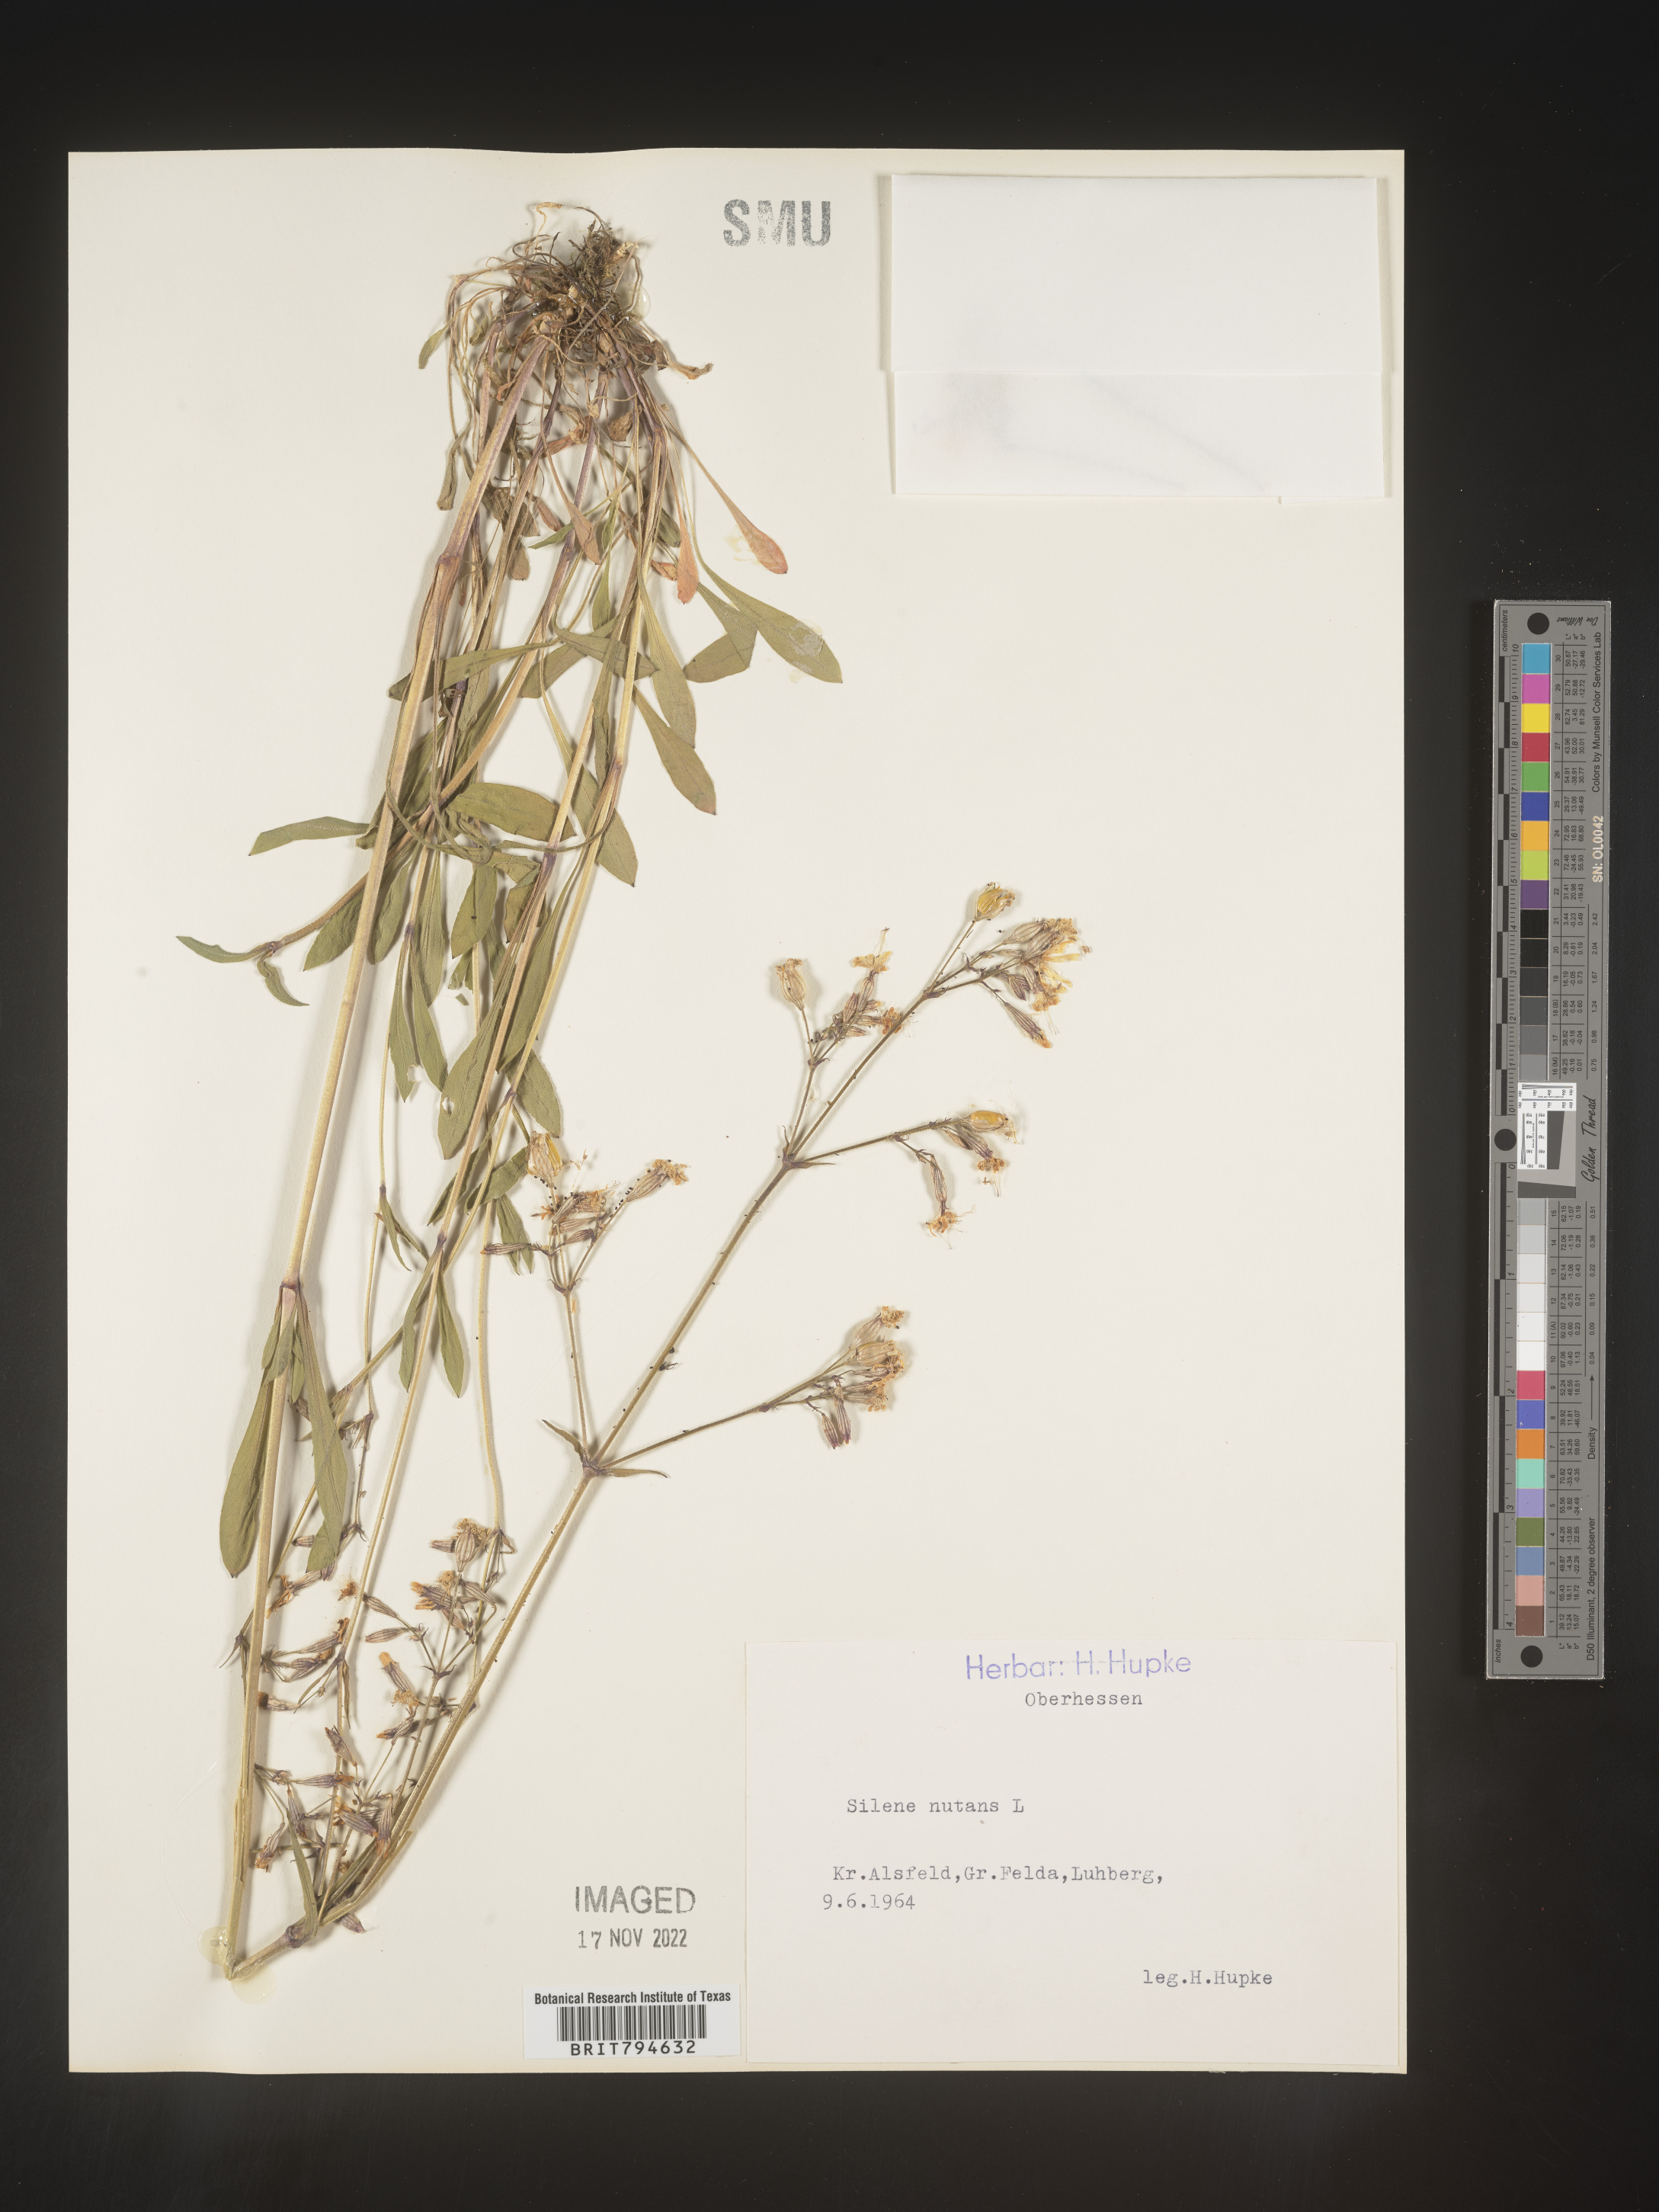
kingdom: Plantae
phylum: Tracheophyta
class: Magnoliopsida
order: Caryophyllales
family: Caryophyllaceae
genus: Silene
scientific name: Silene nutans
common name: Nottingham catchfly
